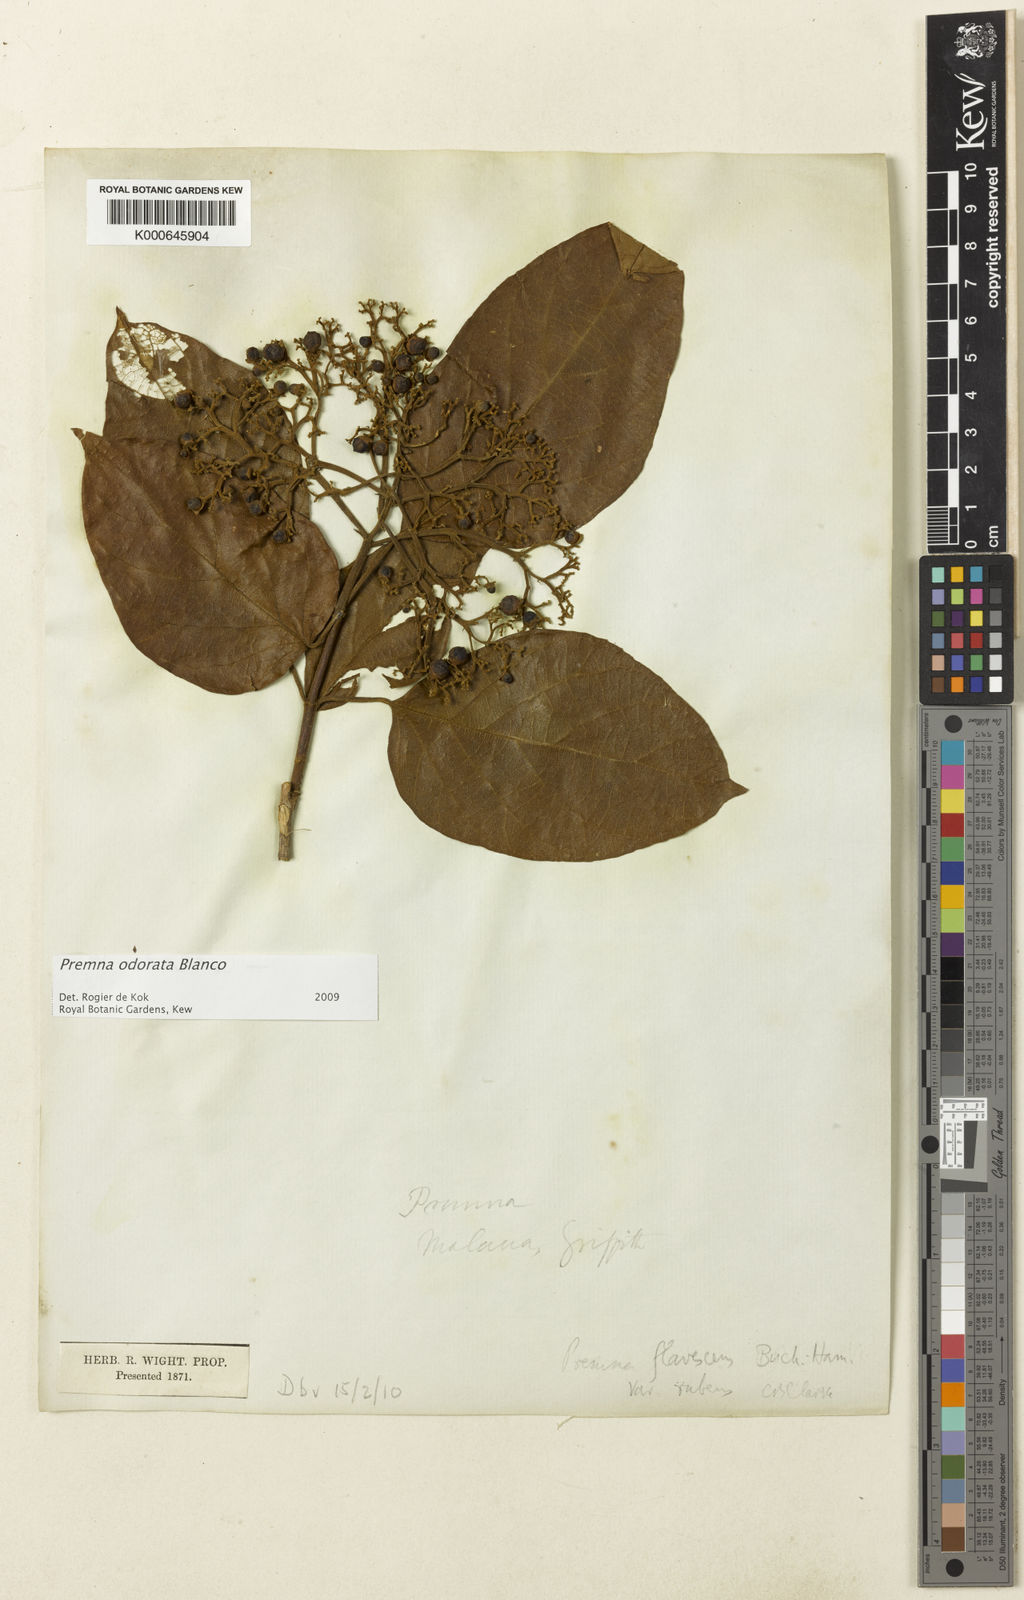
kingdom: Plantae
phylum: Tracheophyta
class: Magnoliopsida
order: Lamiales
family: Lamiaceae
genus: Premna
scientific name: Premna odorata
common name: Fragrant premna
